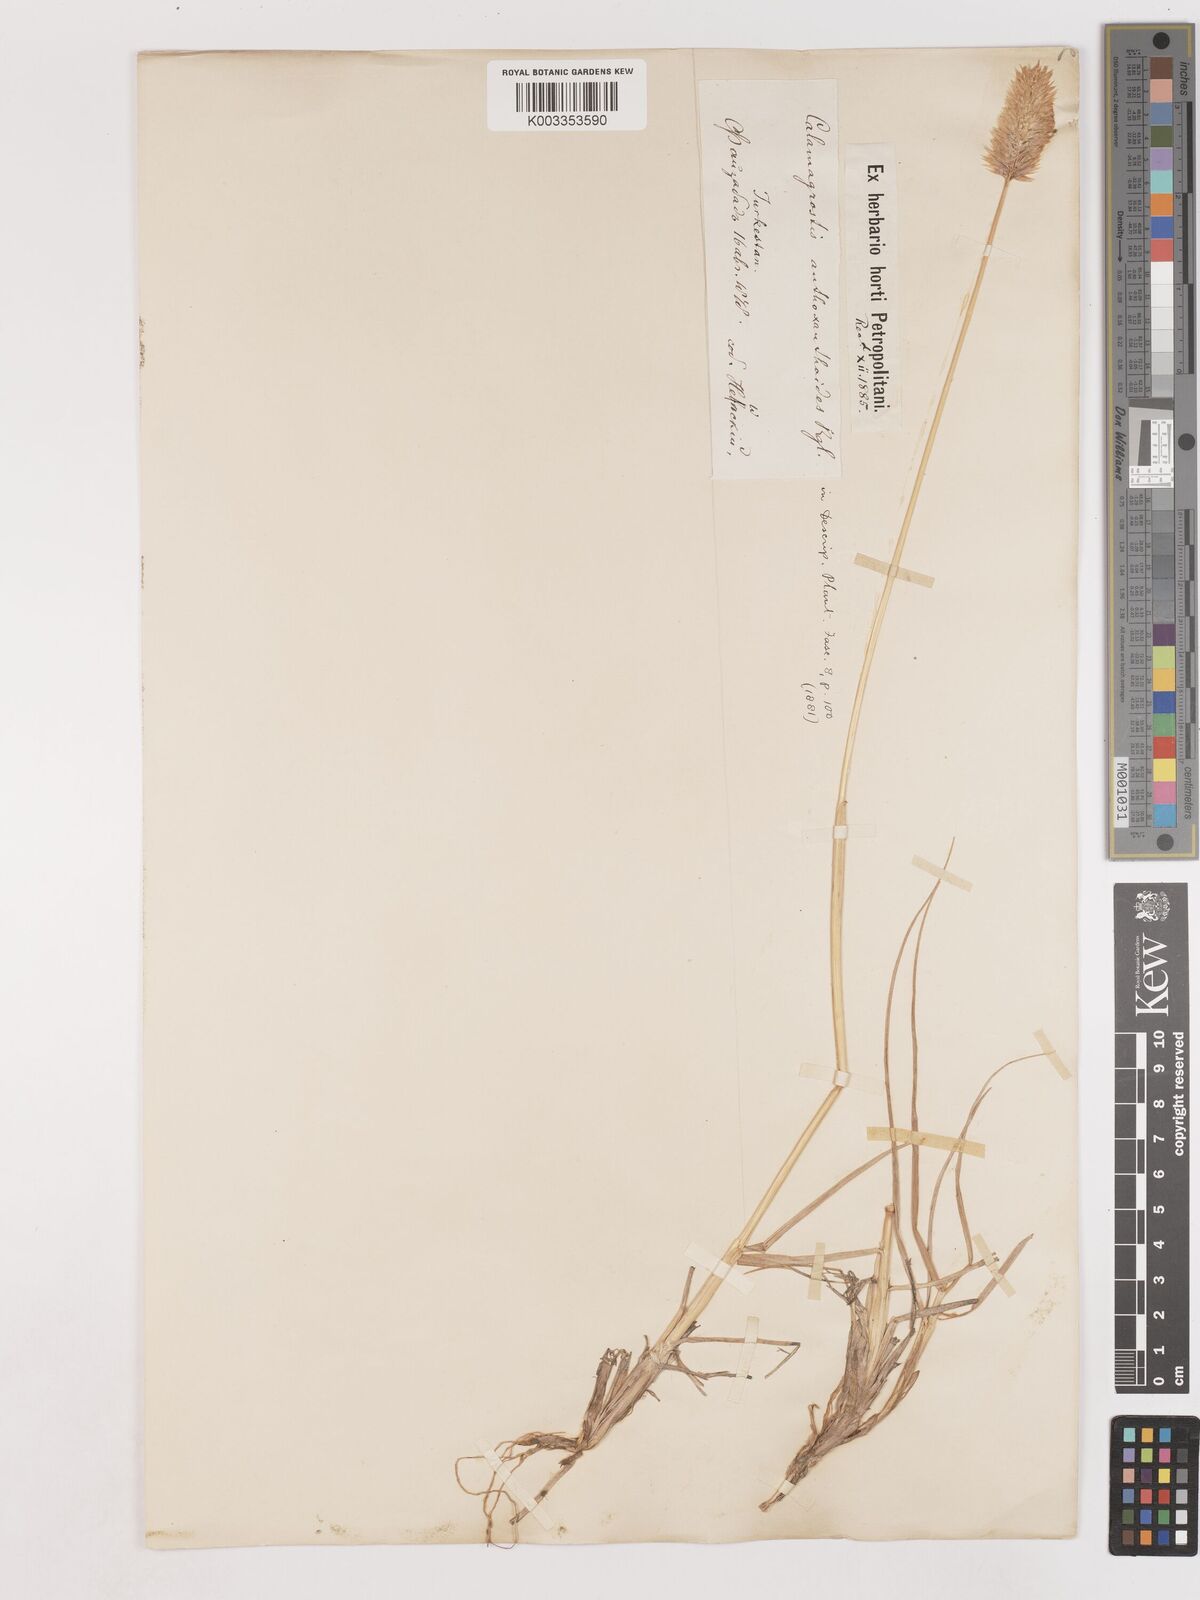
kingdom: Plantae
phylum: Tracheophyta
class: Liliopsida
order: Poales
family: Poaceae
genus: Calamagrostis
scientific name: Calamagrostis anthoxanthoides
